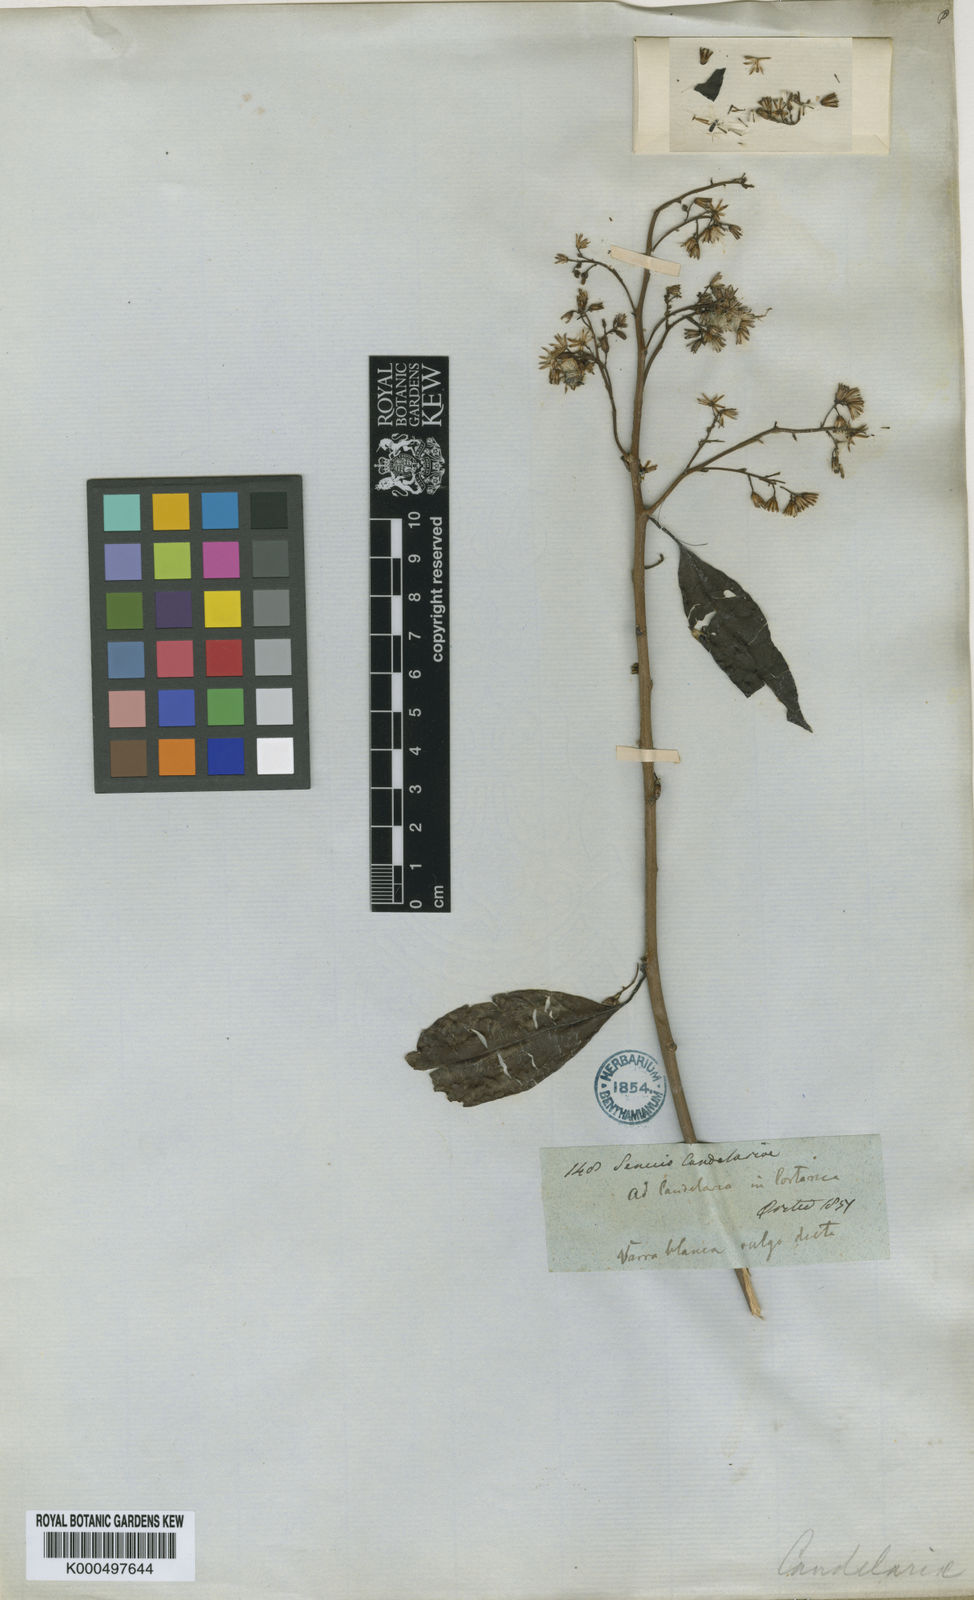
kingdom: Plantae
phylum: Tracheophyta
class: Magnoliopsida
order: Asterales
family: Asteraceae
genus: Pentacalia
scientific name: Pentacalia
